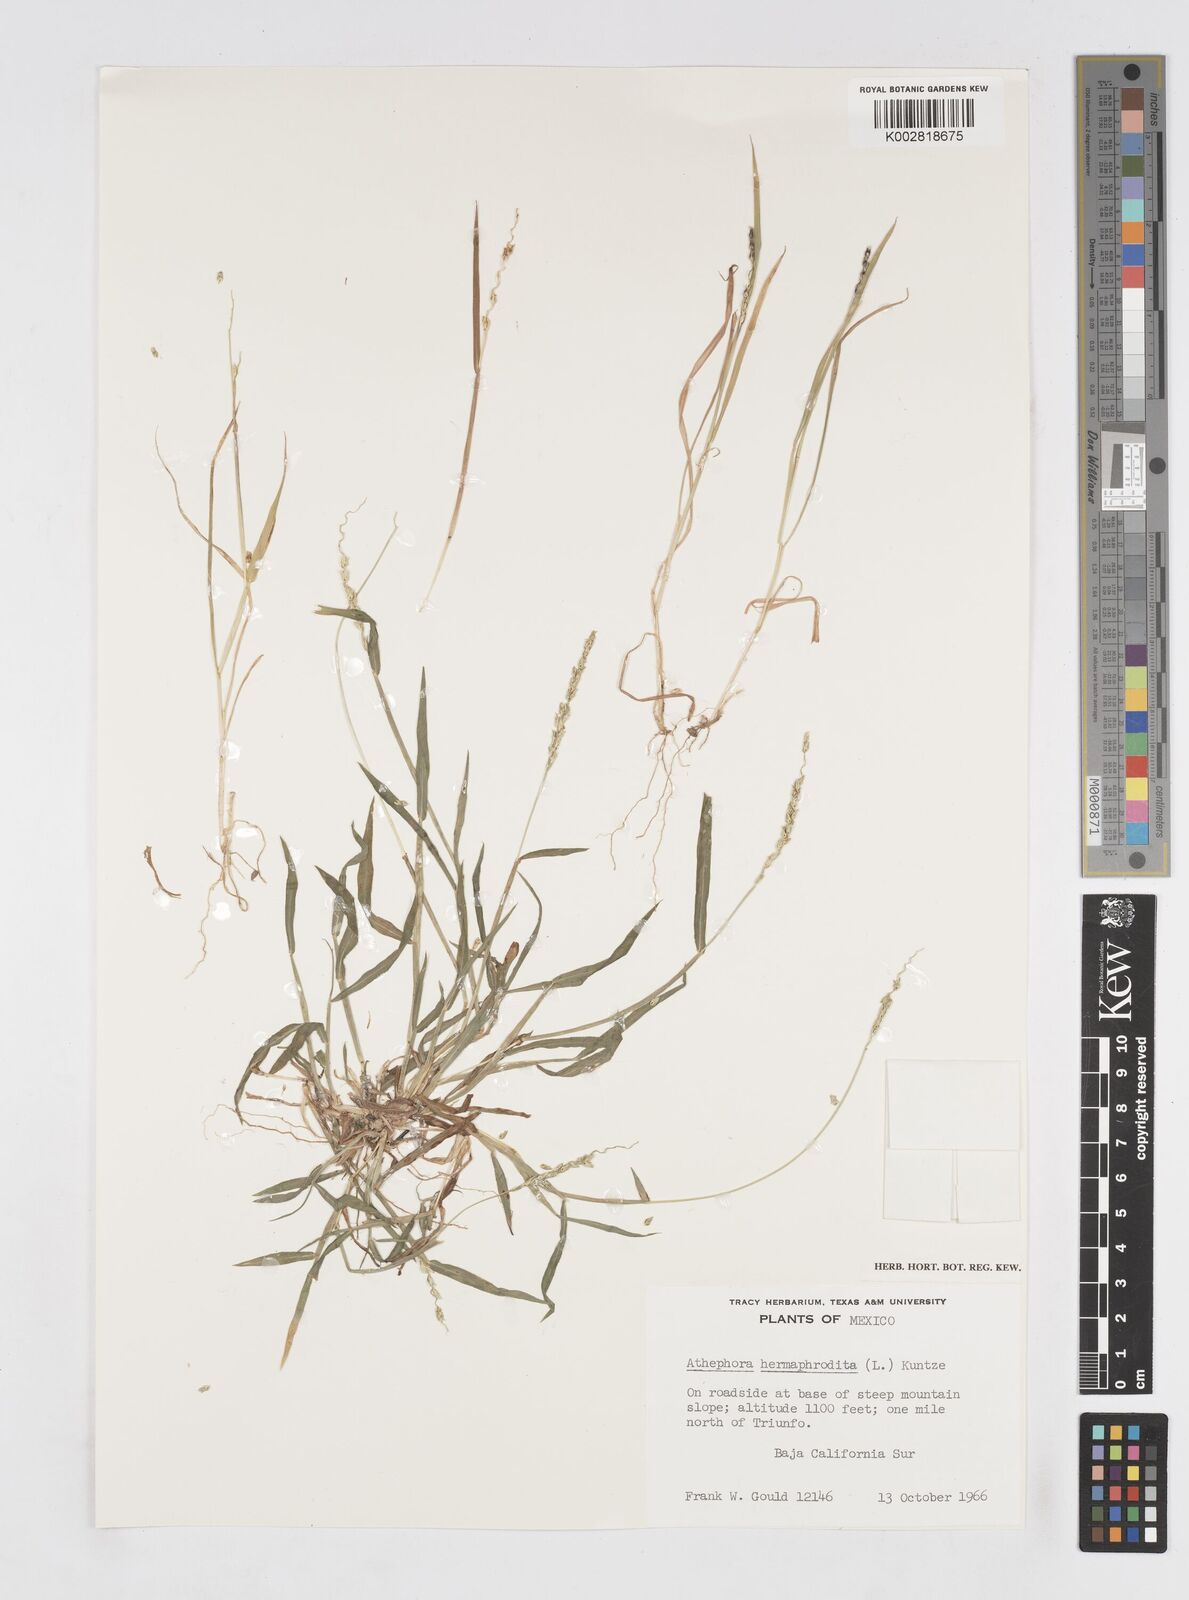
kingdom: Plantae
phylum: Tracheophyta
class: Liliopsida
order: Poales
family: Poaceae
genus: Anthephora
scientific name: Anthephora hermaphrodita
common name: Oldfield grass
